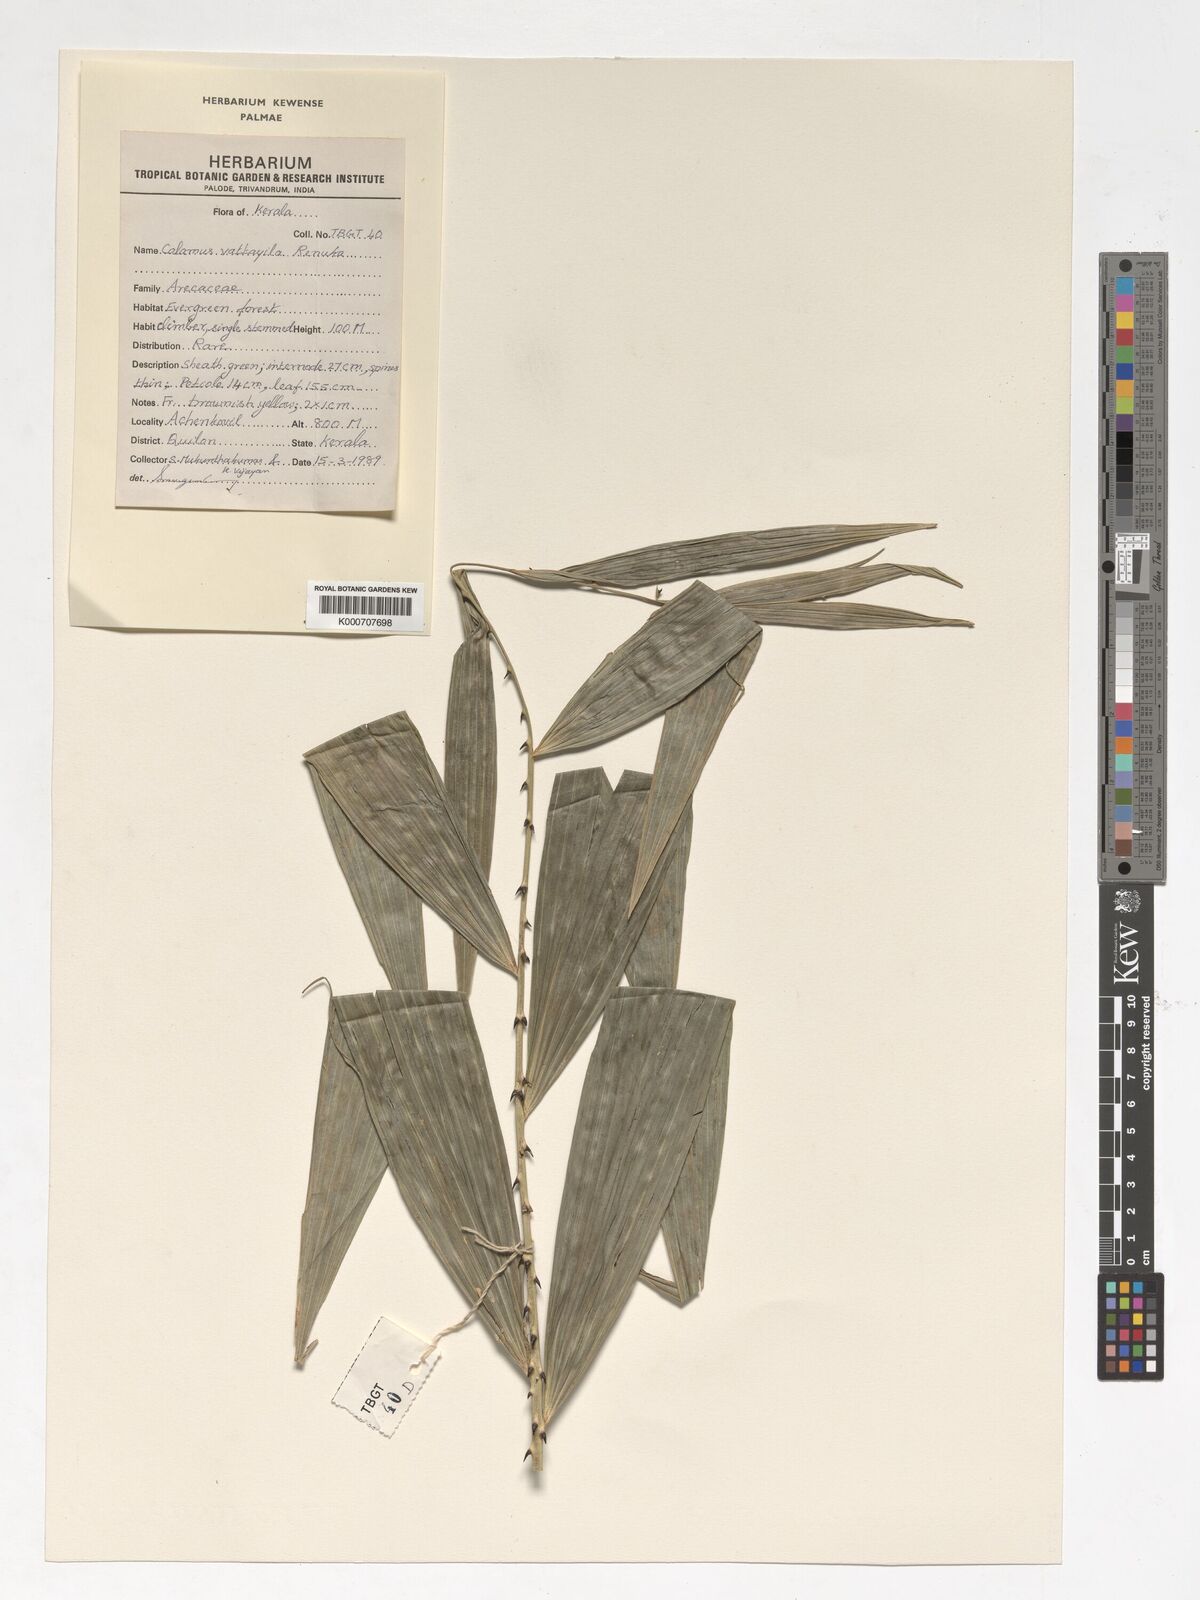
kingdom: Plantae
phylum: Tracheophyta
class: Liliopsida
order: Arecales
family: Arecaceae
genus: Calamus
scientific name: Calamus vattayila
